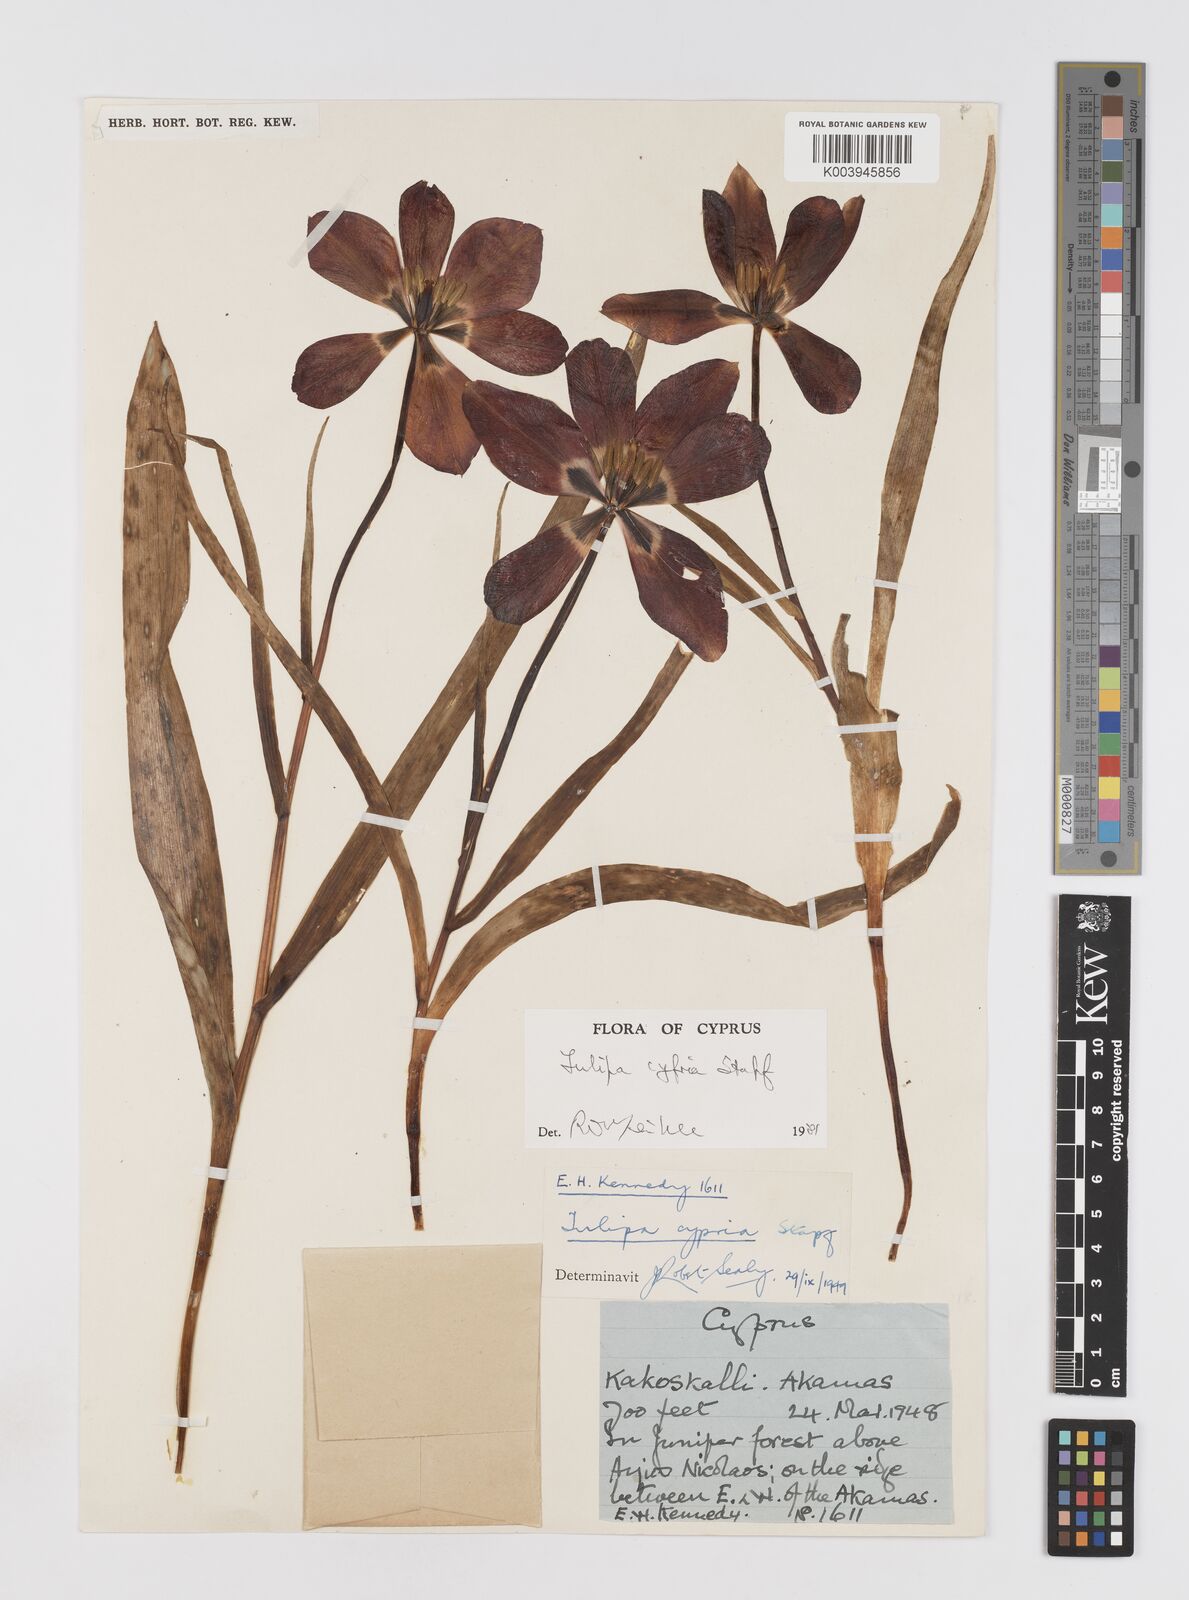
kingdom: Plantae
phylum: Tracheophyta
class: Liliopsida
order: Liliales
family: Liliaceae
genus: Tulipa
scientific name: Tulipa cypria
